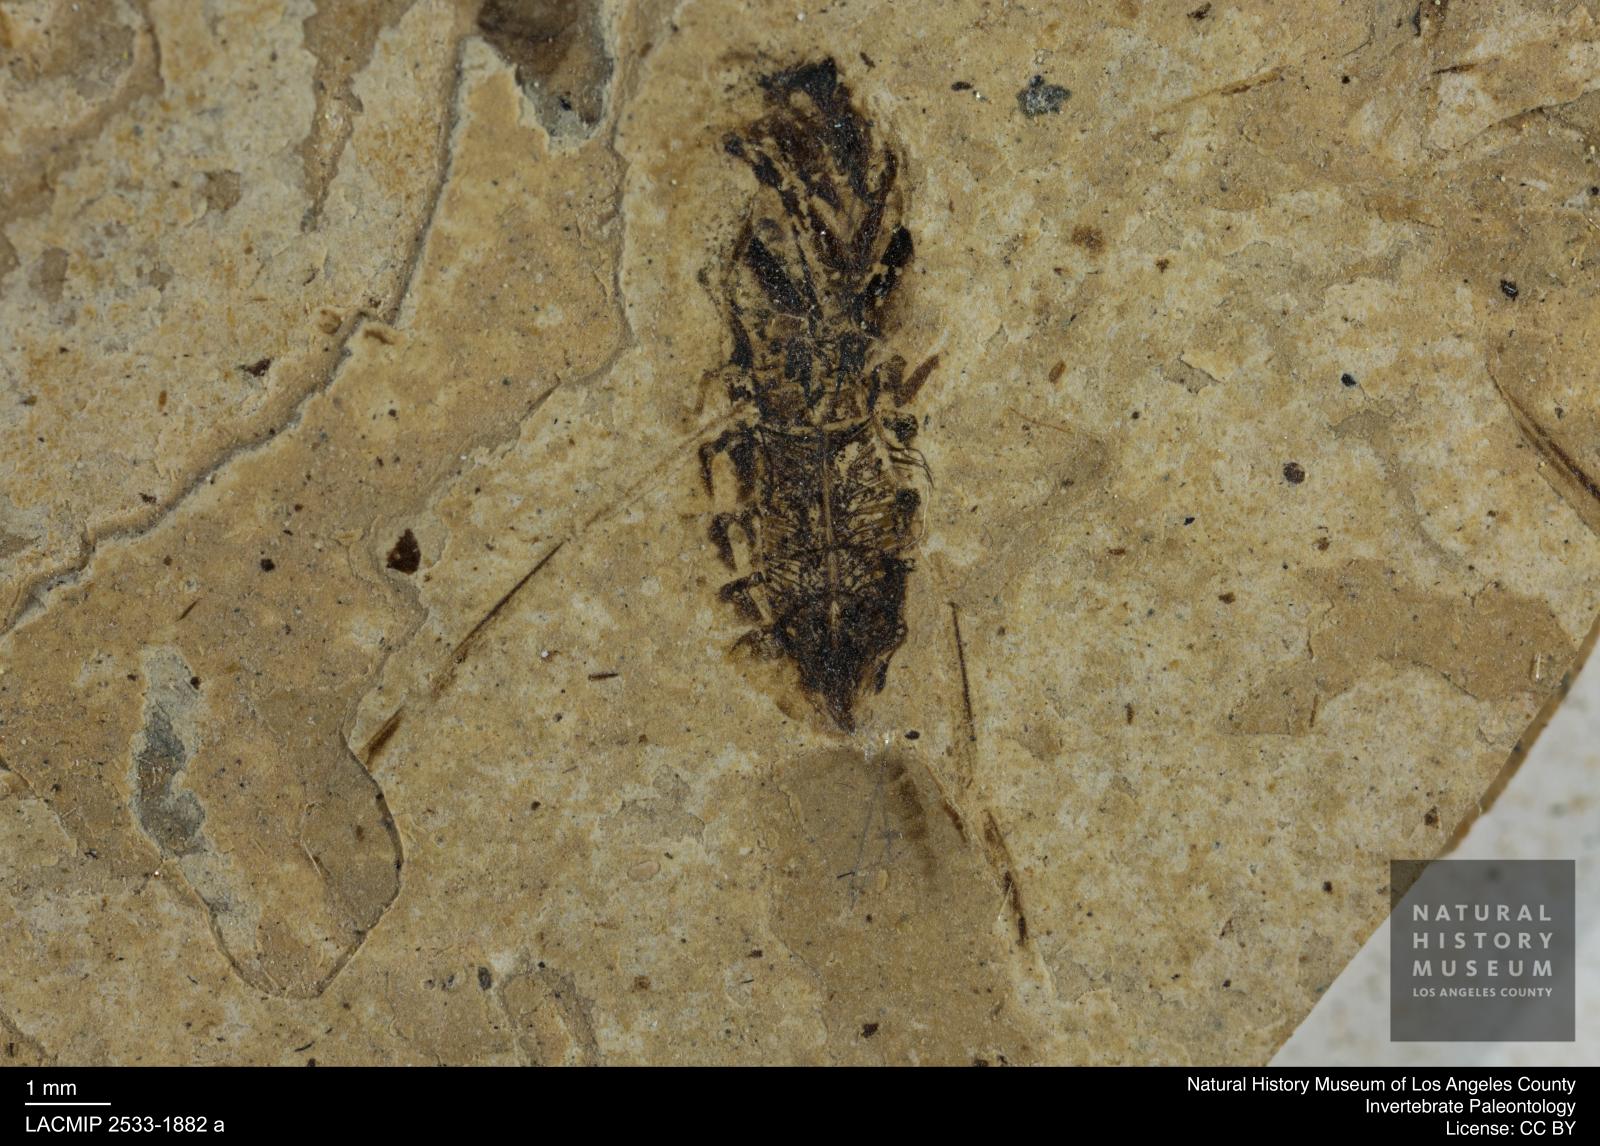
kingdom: Animalia
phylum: Arthropoda
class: Insecta
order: Hemiptera
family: Notonectidae
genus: Anisops
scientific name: Anisops Notonecta deichmuelleri
